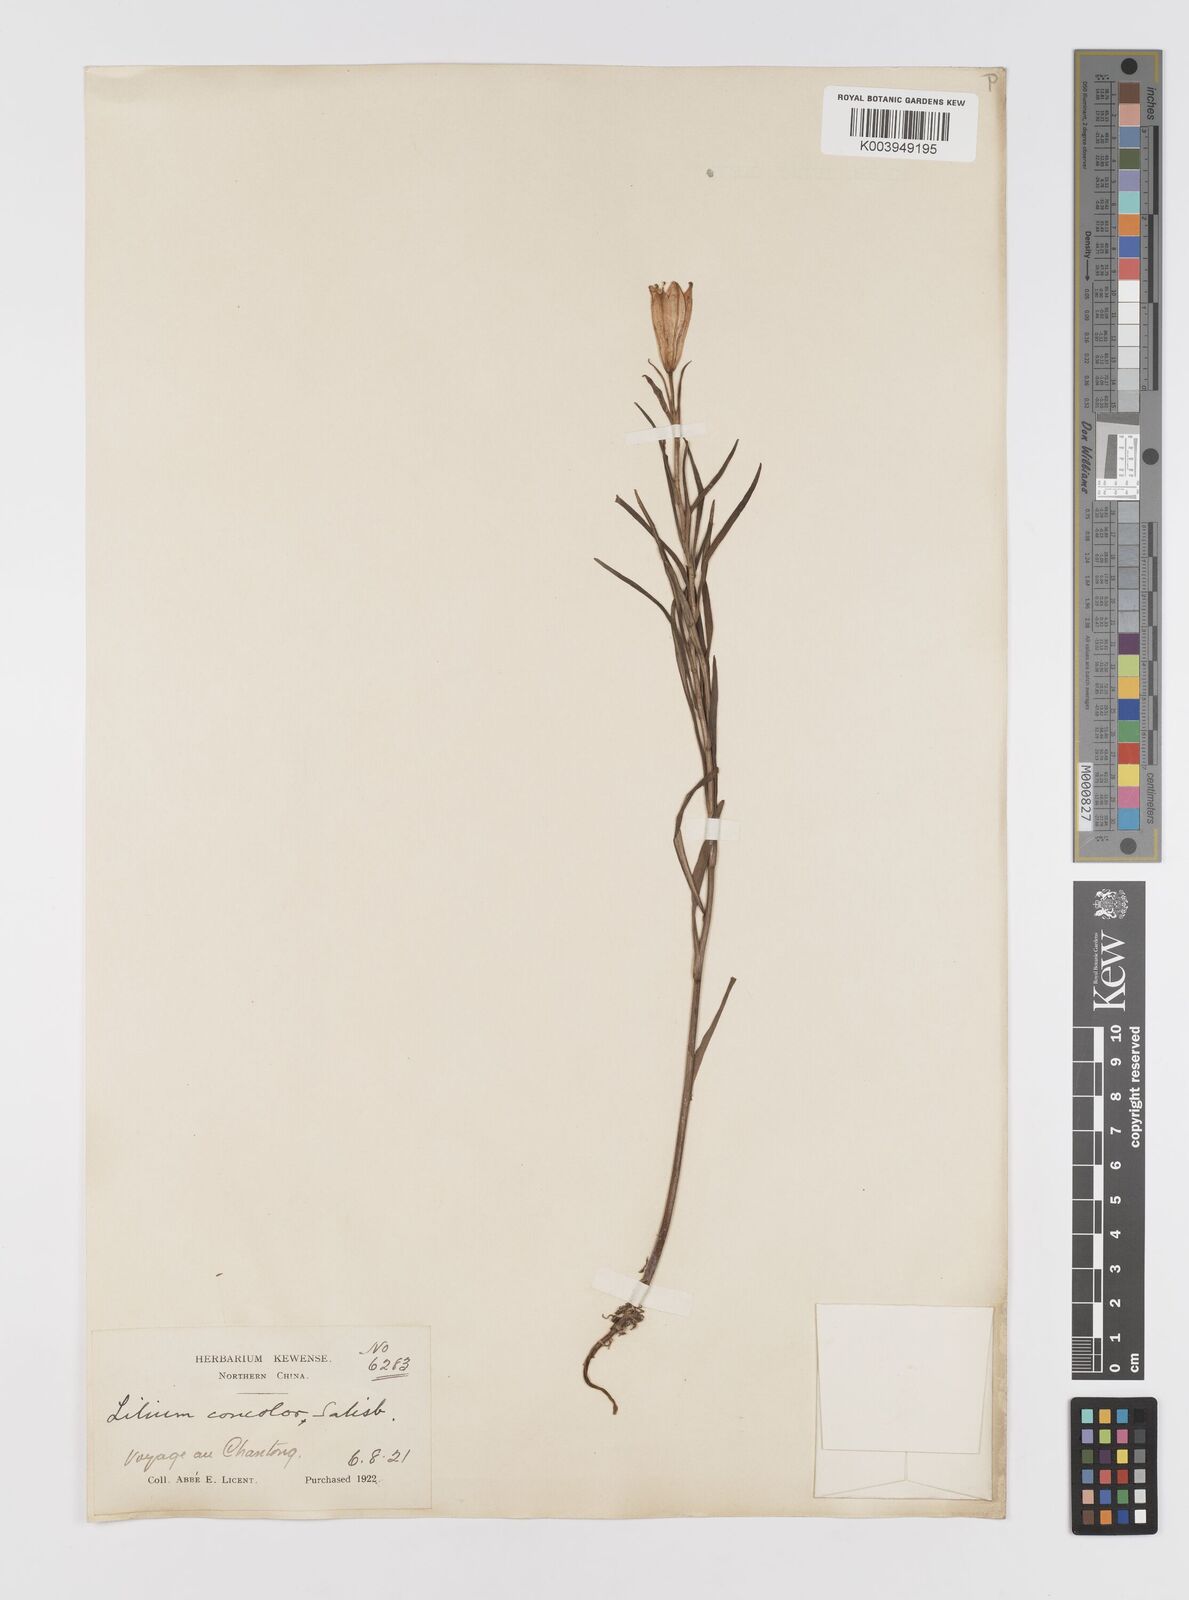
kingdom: Plantae
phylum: Tracheophyta
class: Liliopsida
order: Liliales
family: Liliaceae
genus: Lilium
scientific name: Lilium concolor
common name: Morning-star lily
